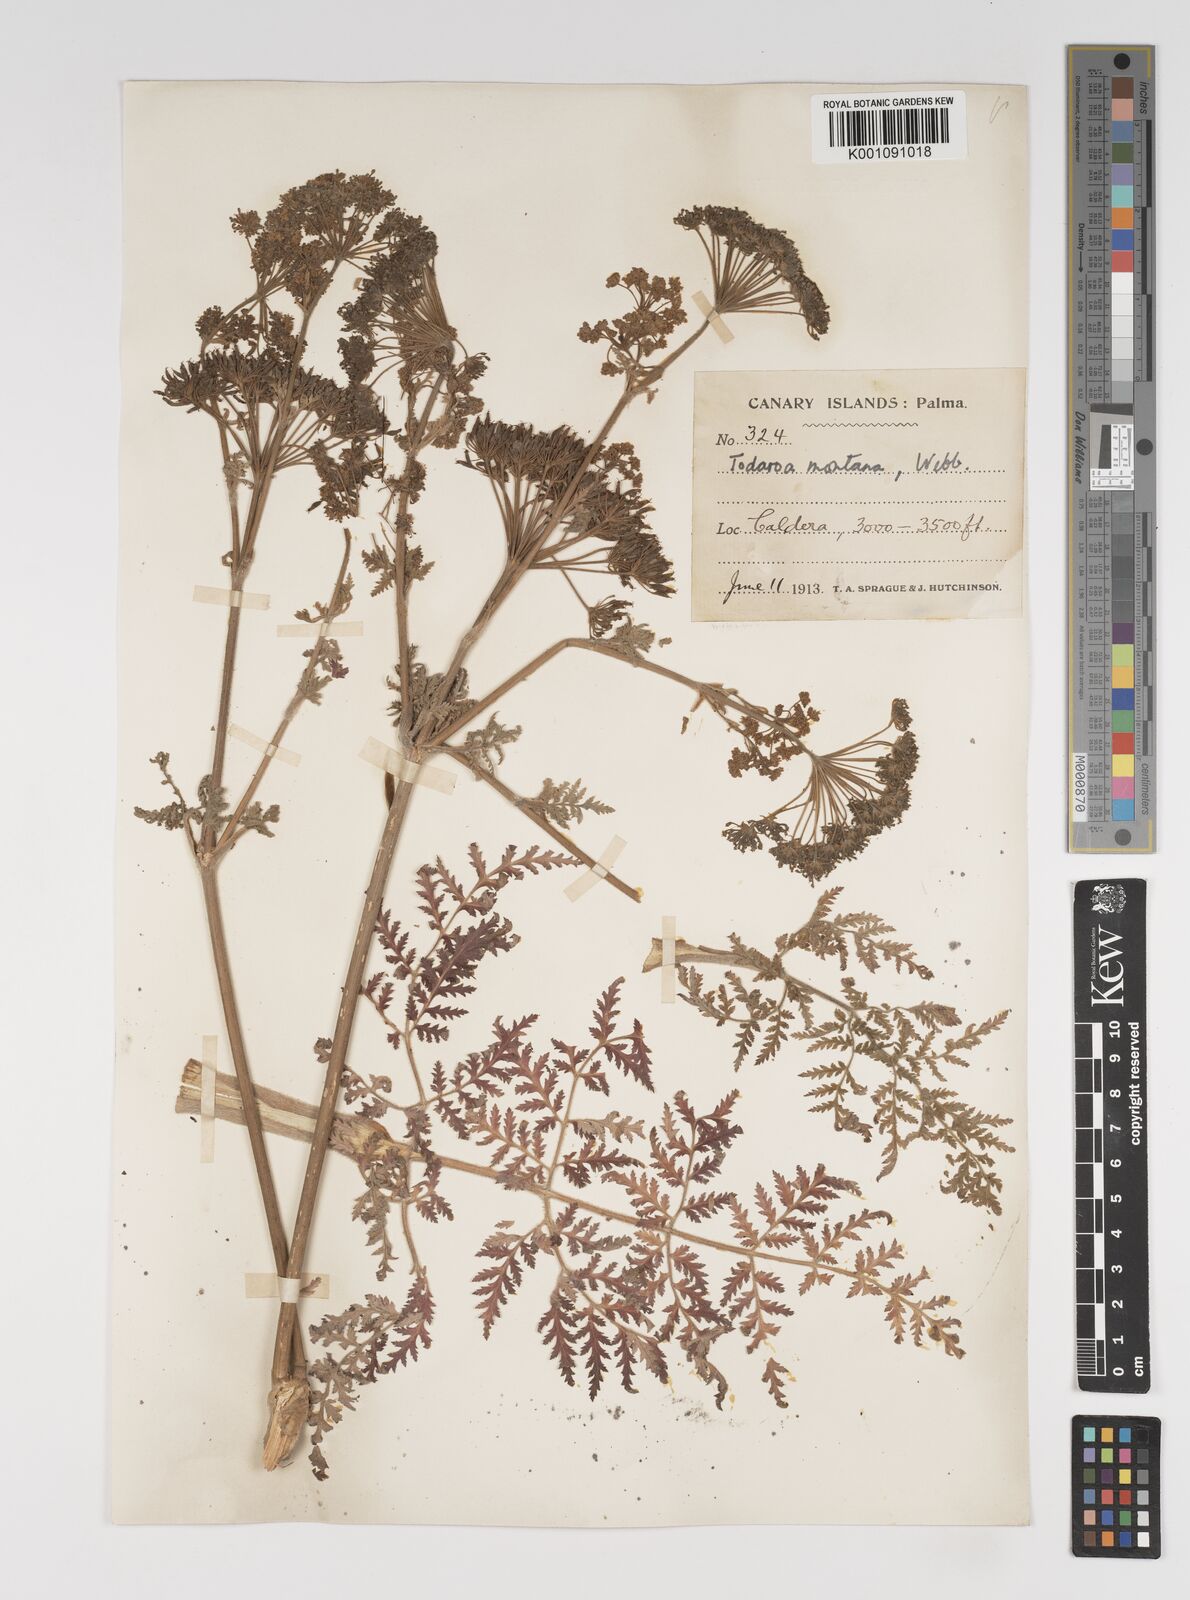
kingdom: Plantae
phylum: Tracheophyta
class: Magnoliopsida
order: Apiales
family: Apiaceae
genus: Athamanta
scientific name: Athamanta montana
